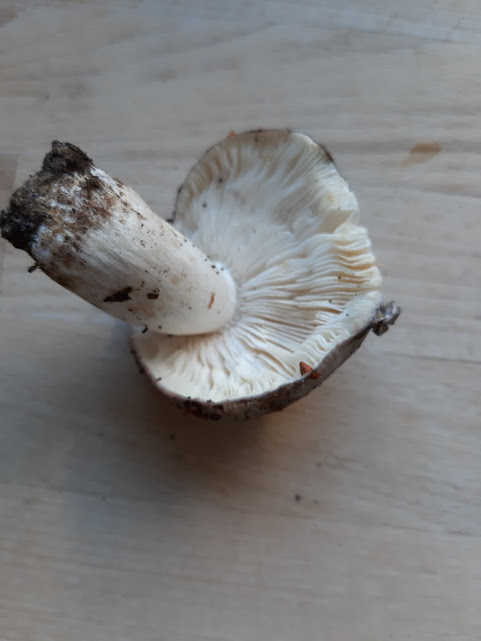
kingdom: Fungi
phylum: Basidiomycota
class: Agaricomycetes
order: Russulales
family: Russulaceae
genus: Russula
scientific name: Russula cyanoxantha
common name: broget skørhat
